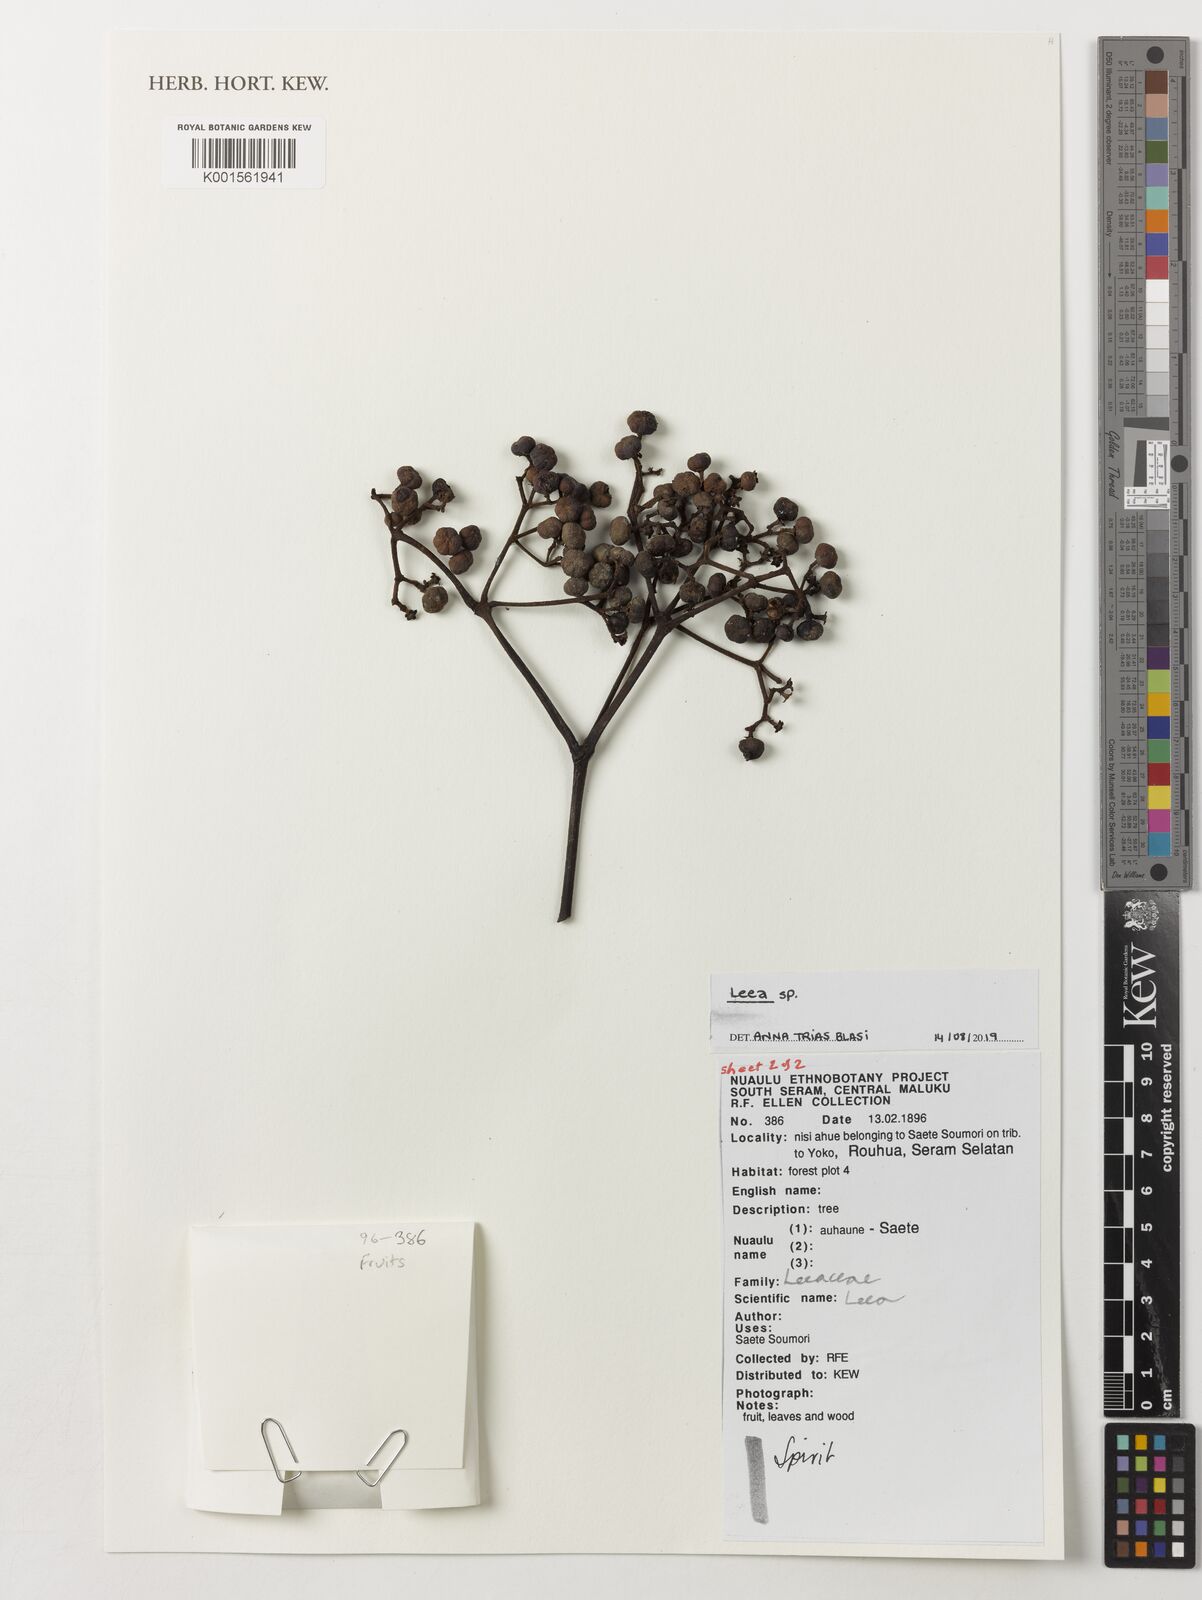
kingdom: Plantae
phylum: Tracheophyta
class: Magnoliopsida
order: Vitales
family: Vitaceae
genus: Leea
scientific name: Leea
